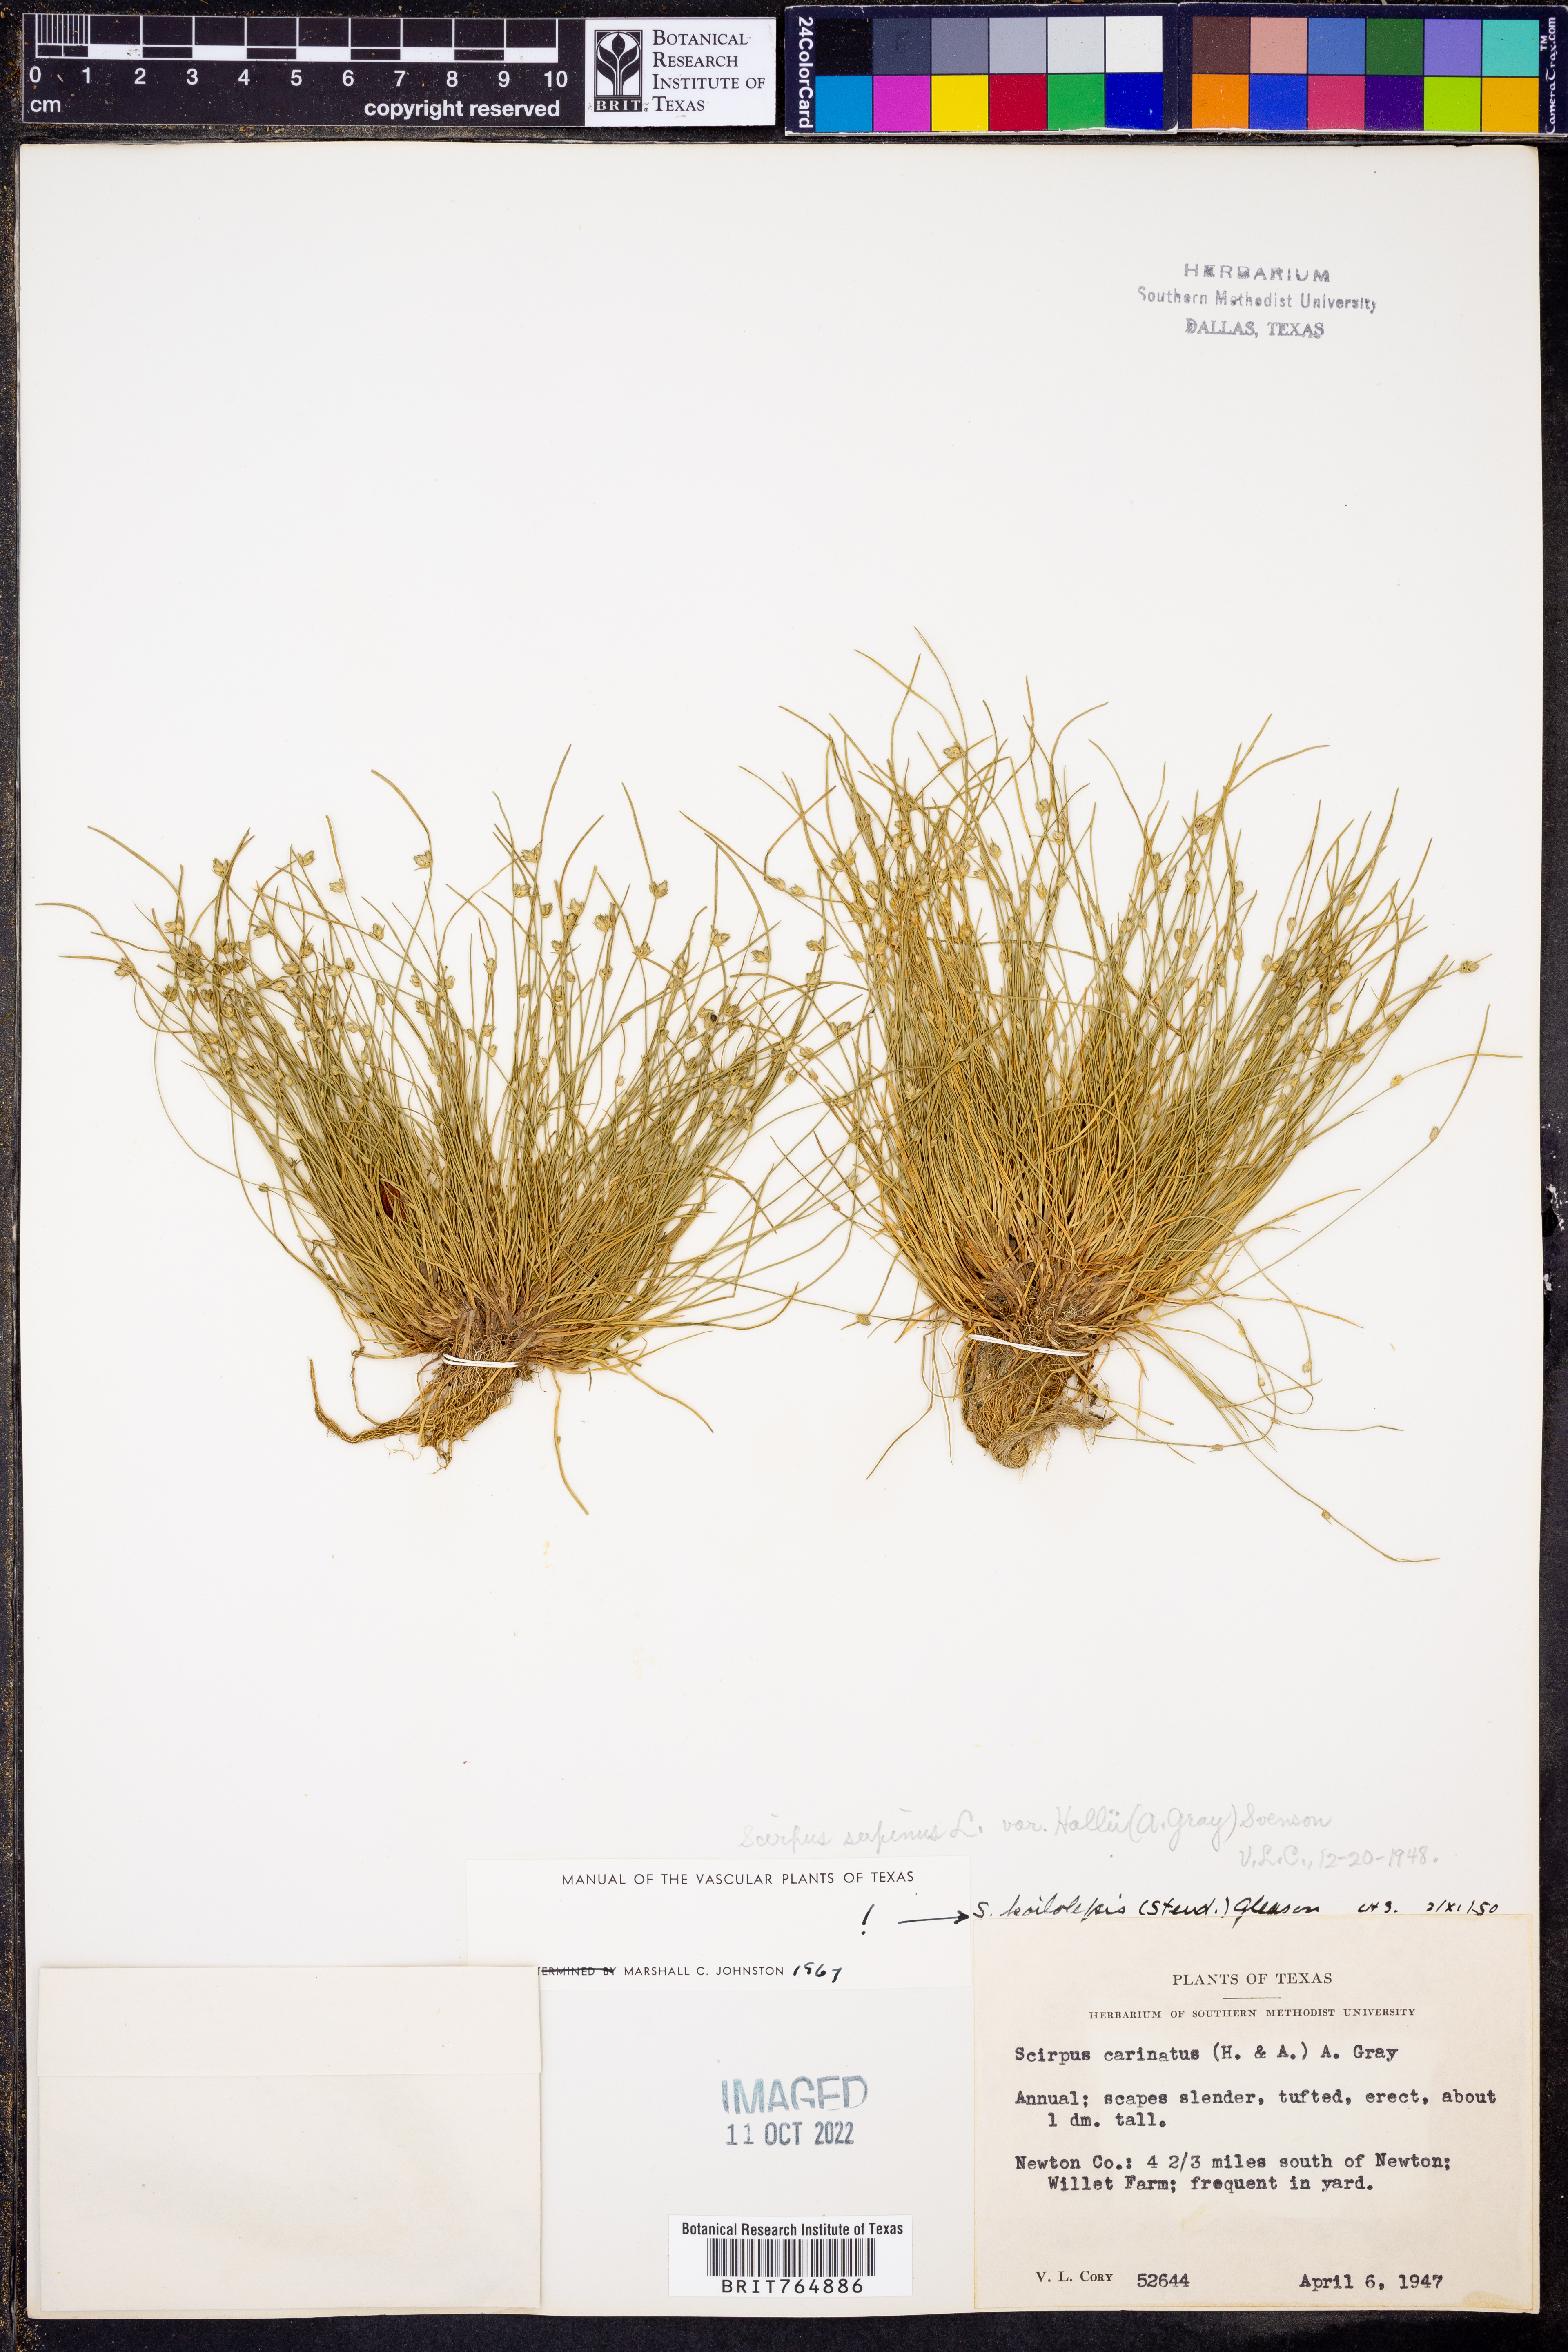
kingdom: Plantae
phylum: Tracheophyta
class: Liliopsida
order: Poales
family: Cyperaceae
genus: Schoenoplectiella
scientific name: Schoenoplectiella hallii
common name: Hall's bullrush
